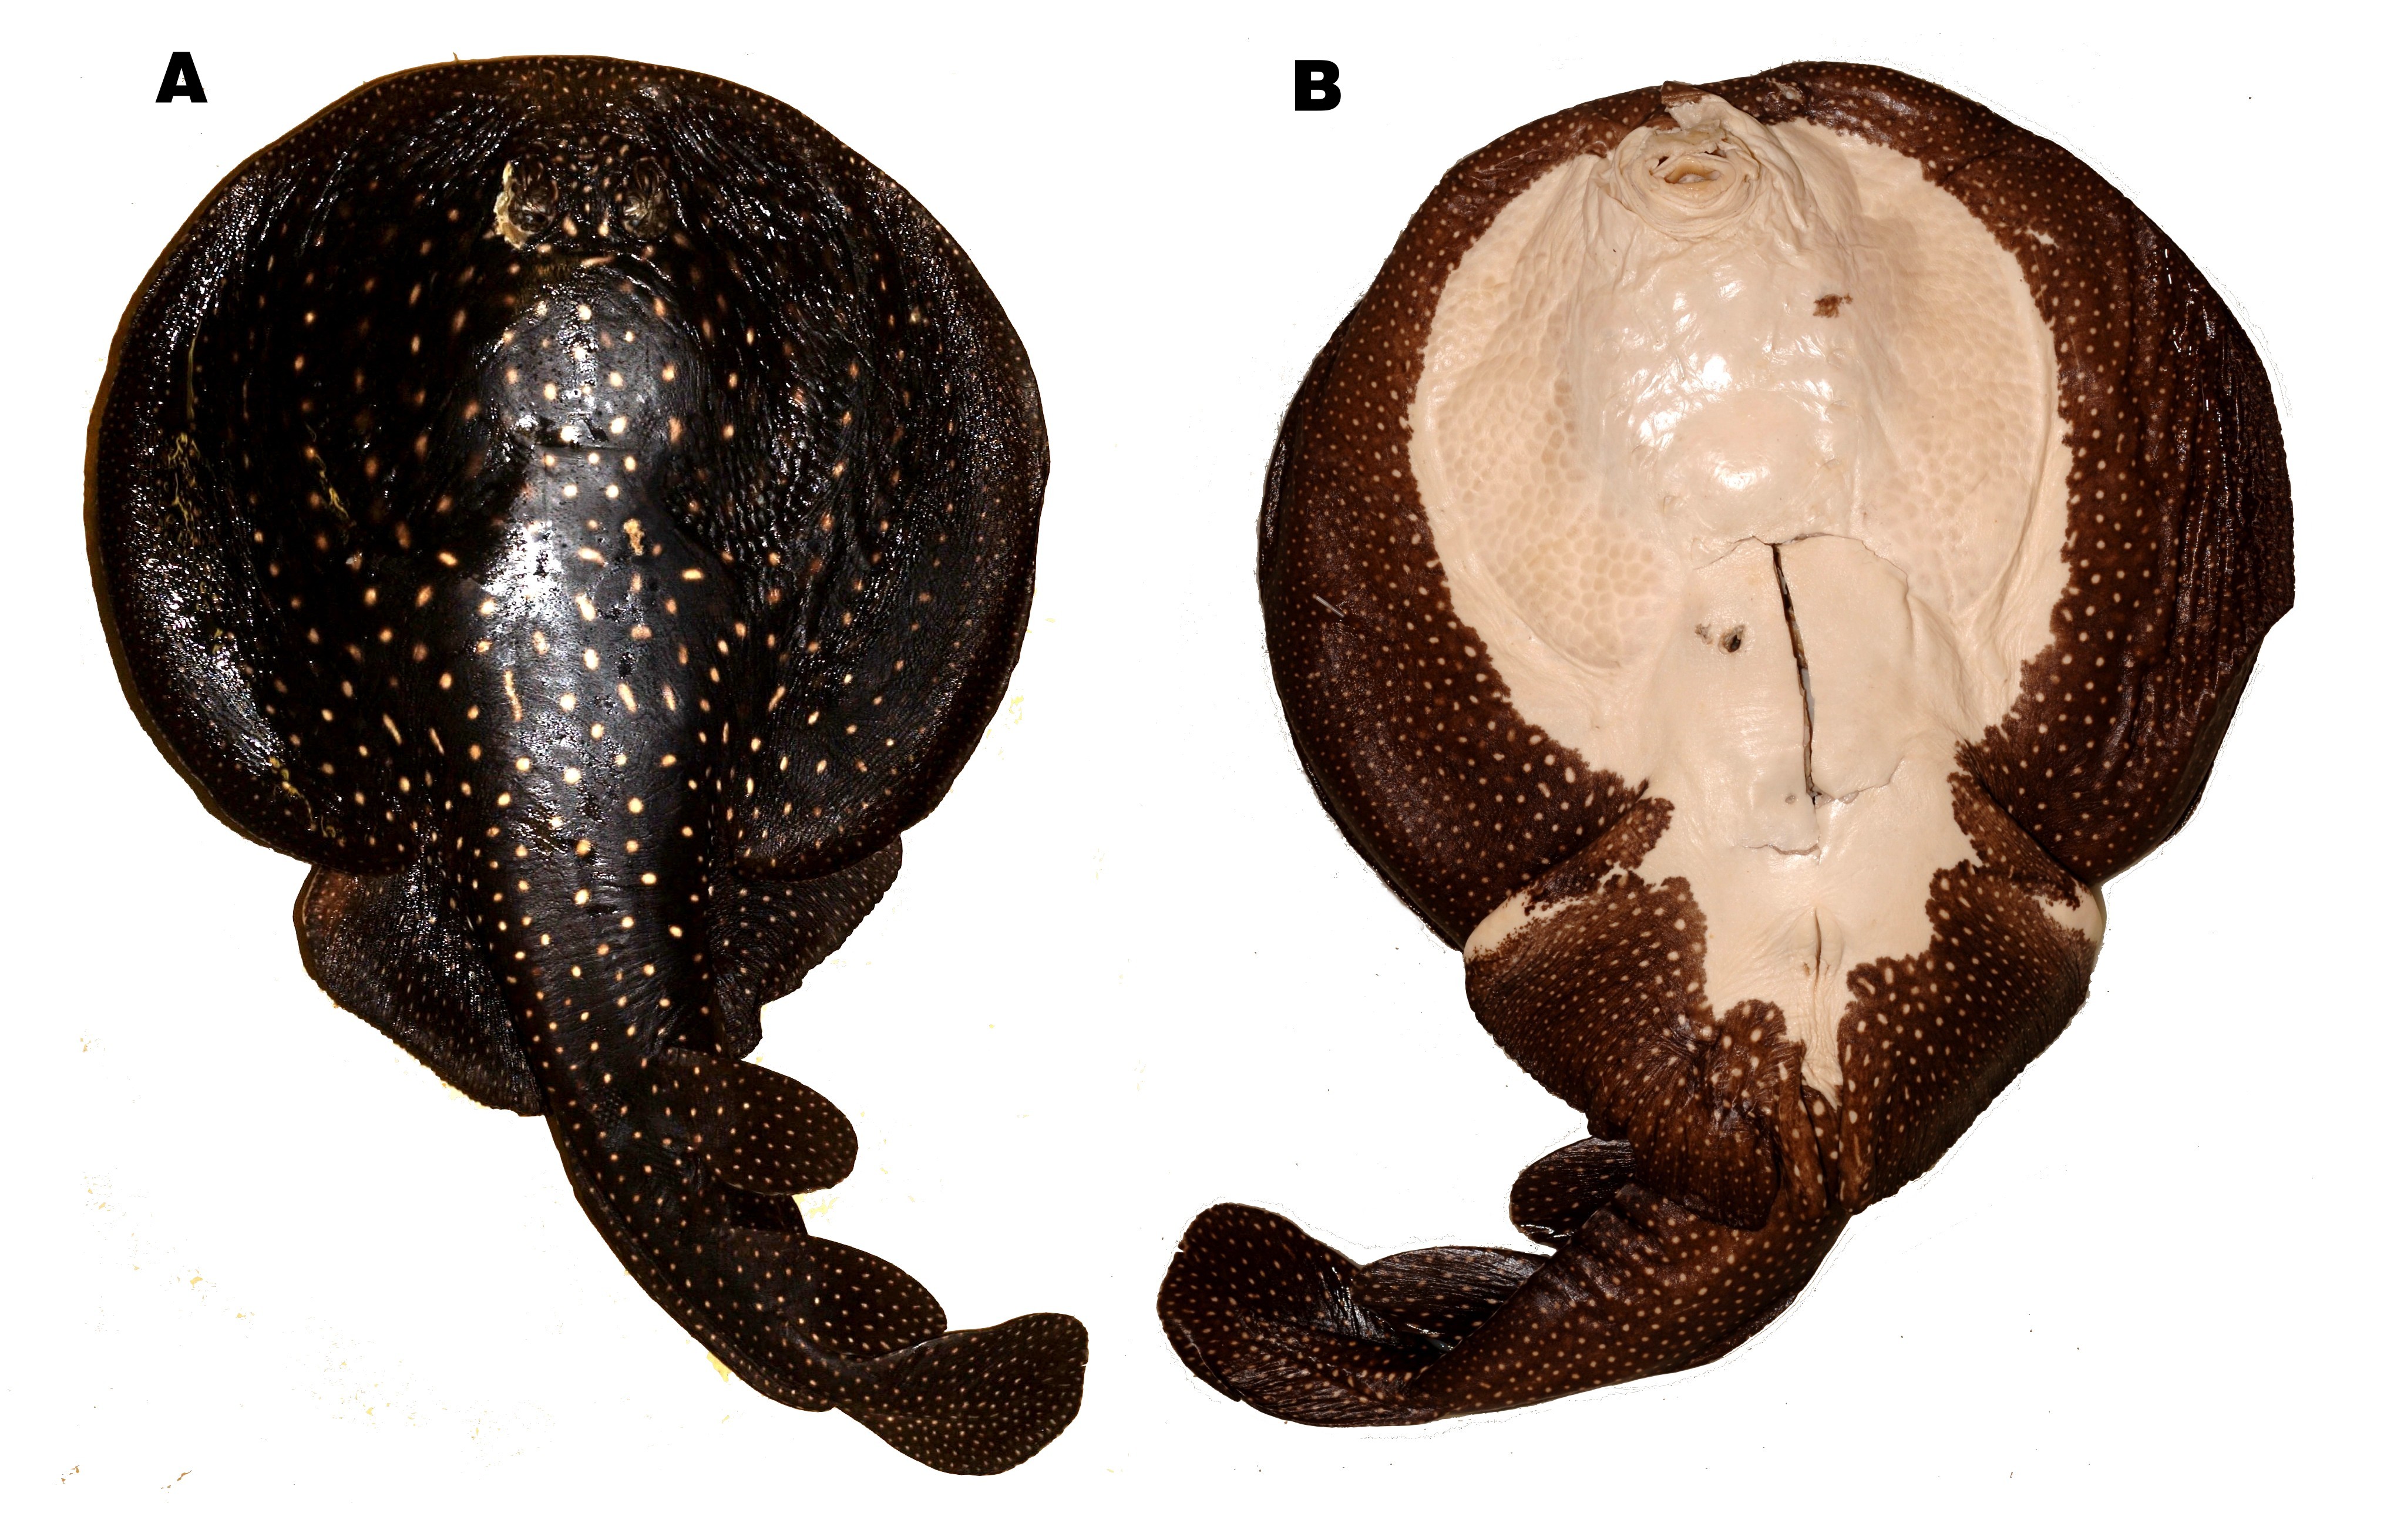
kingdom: Animalia
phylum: Chordata
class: Elasmobranchii
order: Torpediniformes
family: Narkidae
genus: Electrolux
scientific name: Electrolux addisoni
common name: Ornate sleeper-ray
